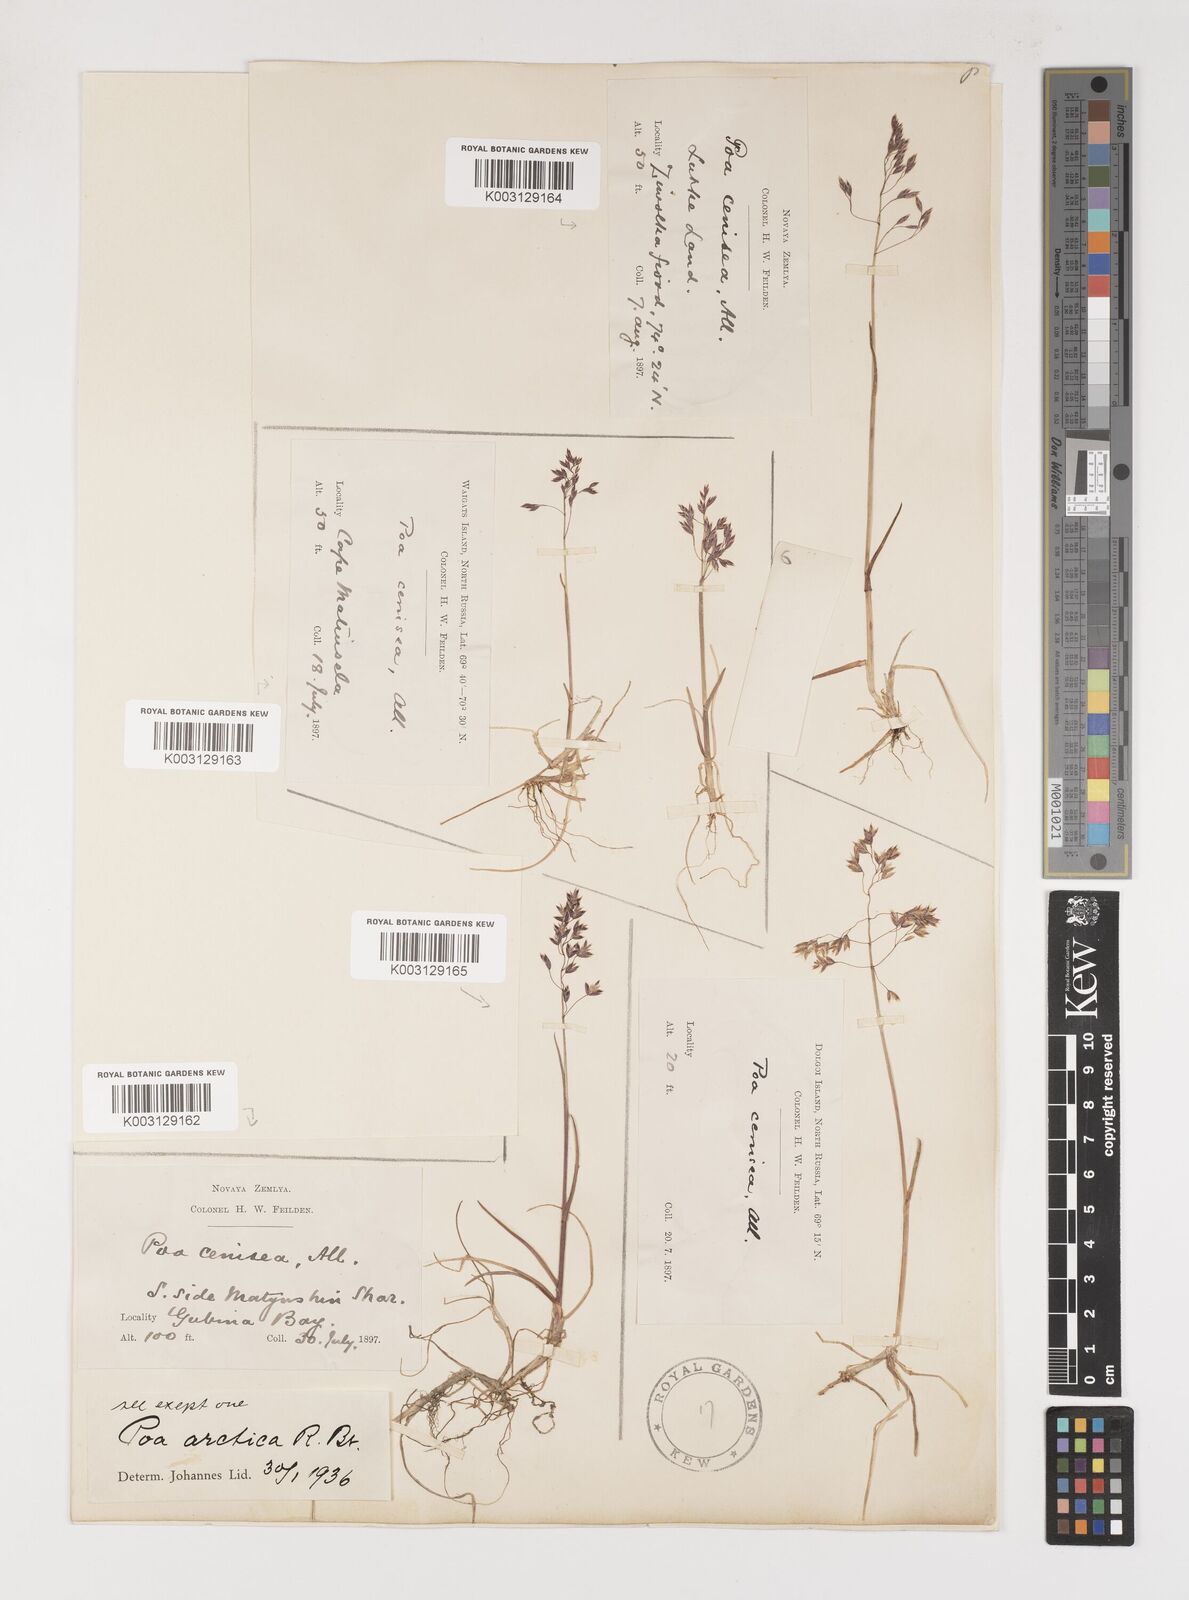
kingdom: Plantae
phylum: Tracheophyta
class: Liliopsida
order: Poales
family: Poaceae
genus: Poa
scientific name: Poa arctica
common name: Arctic bluegrass
